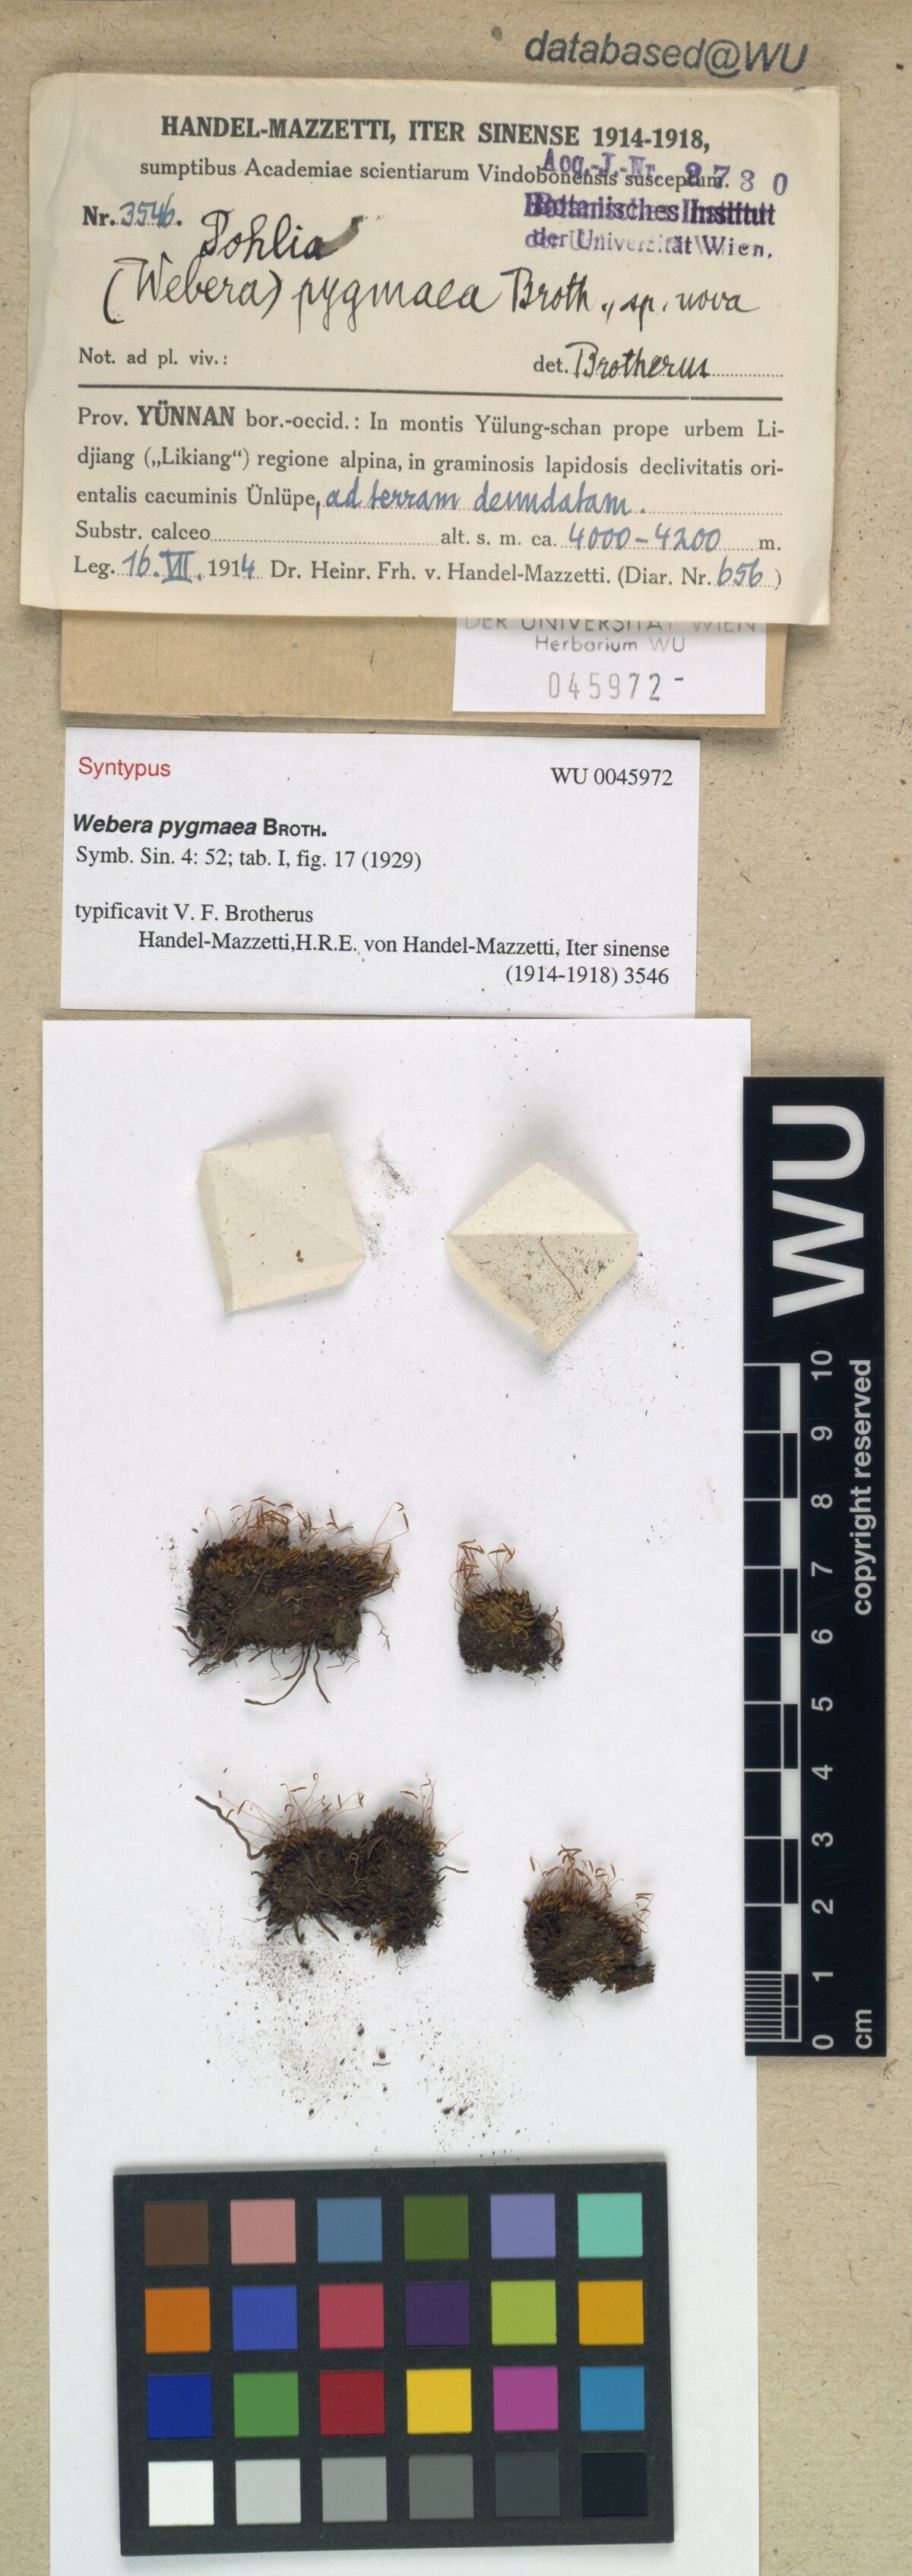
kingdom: Plantae
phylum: Bryophyta
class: Bryopsida
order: Bryales
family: Mniaceae
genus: Pohlia
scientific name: Pohlia elongata
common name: Long-fruited thread-moss
